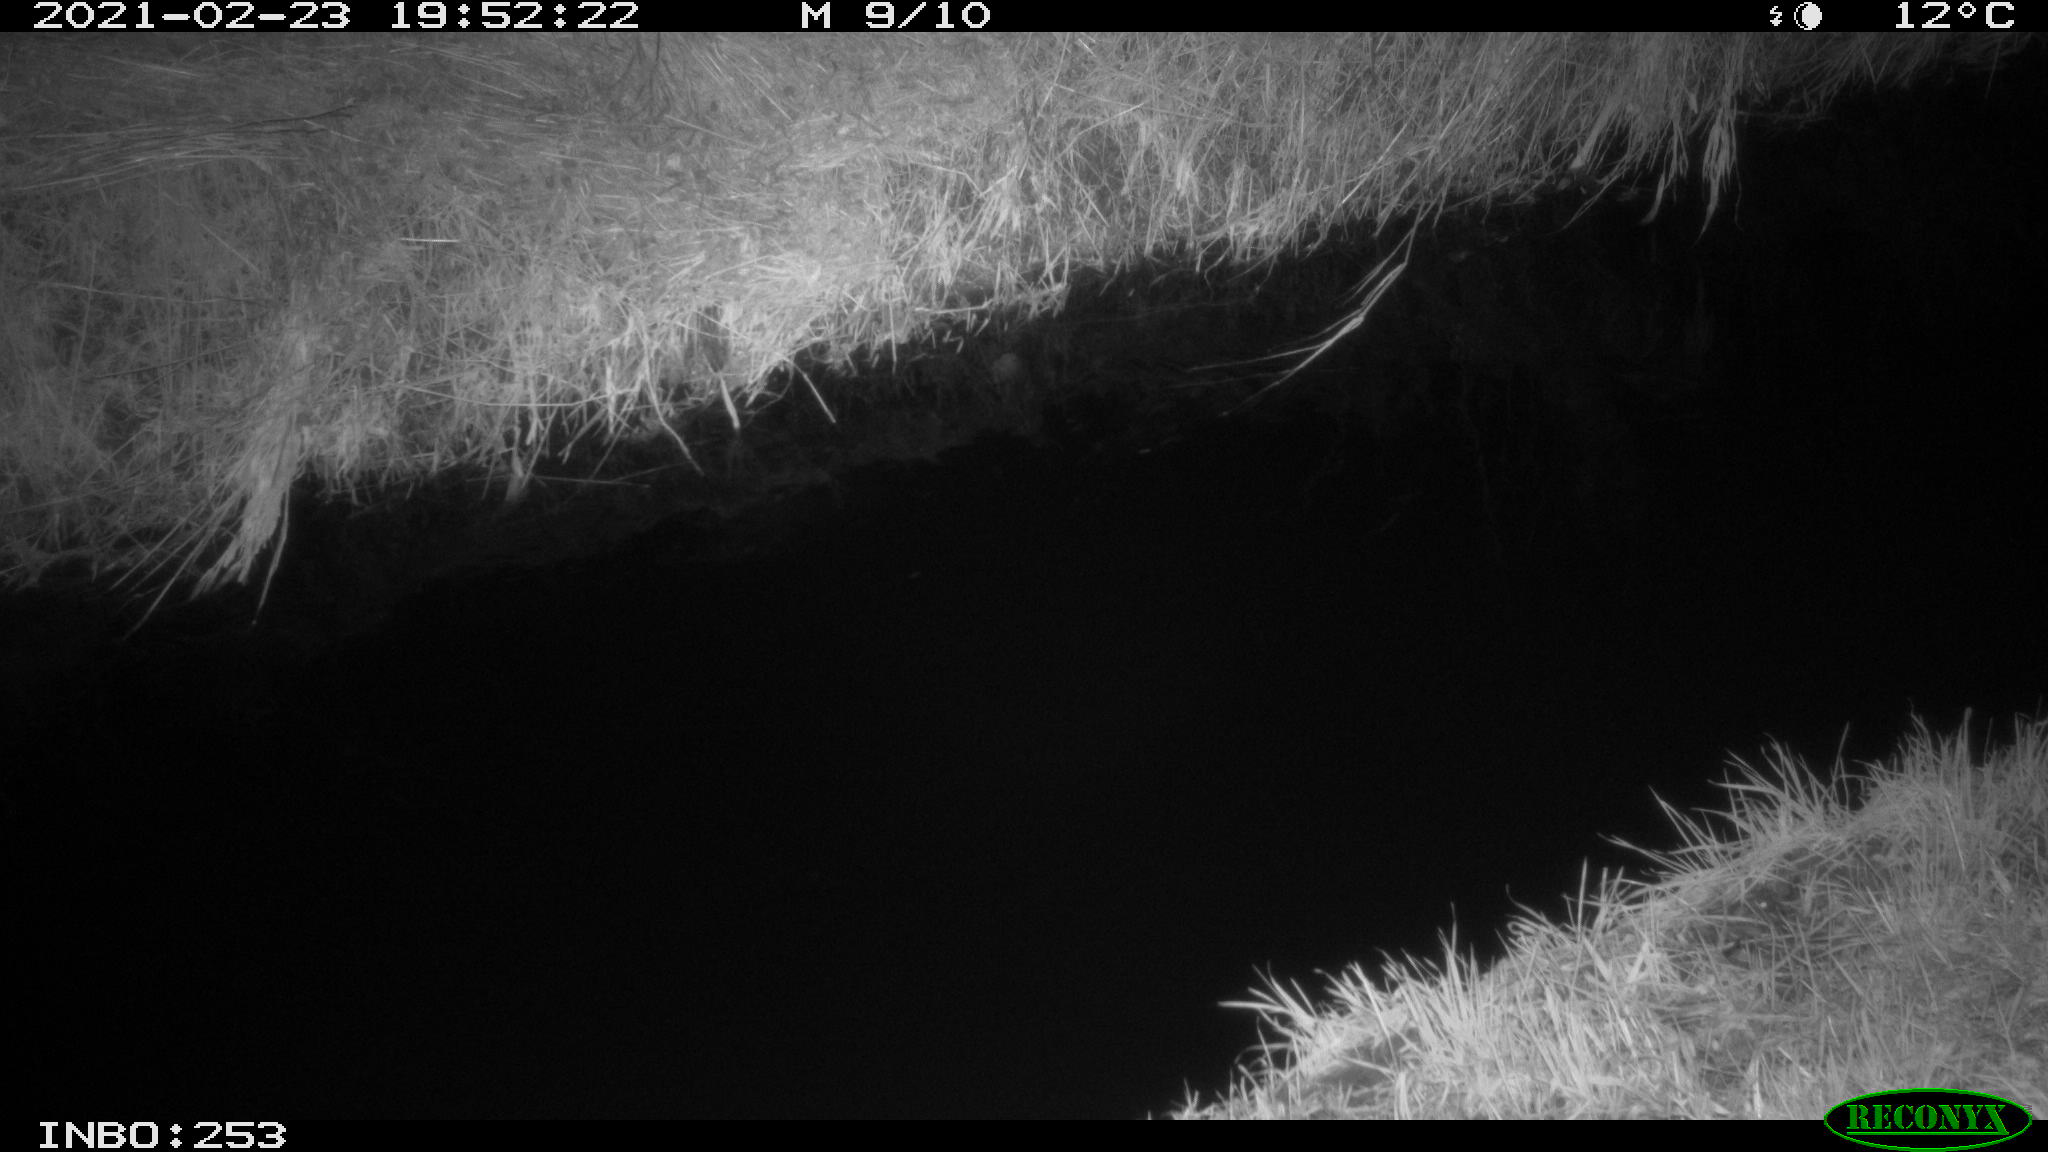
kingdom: Animalia
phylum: Chordata
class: Aves
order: Anseriformes
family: Anatidae
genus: Anas
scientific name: Anas platyrhynchos
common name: Mallard
